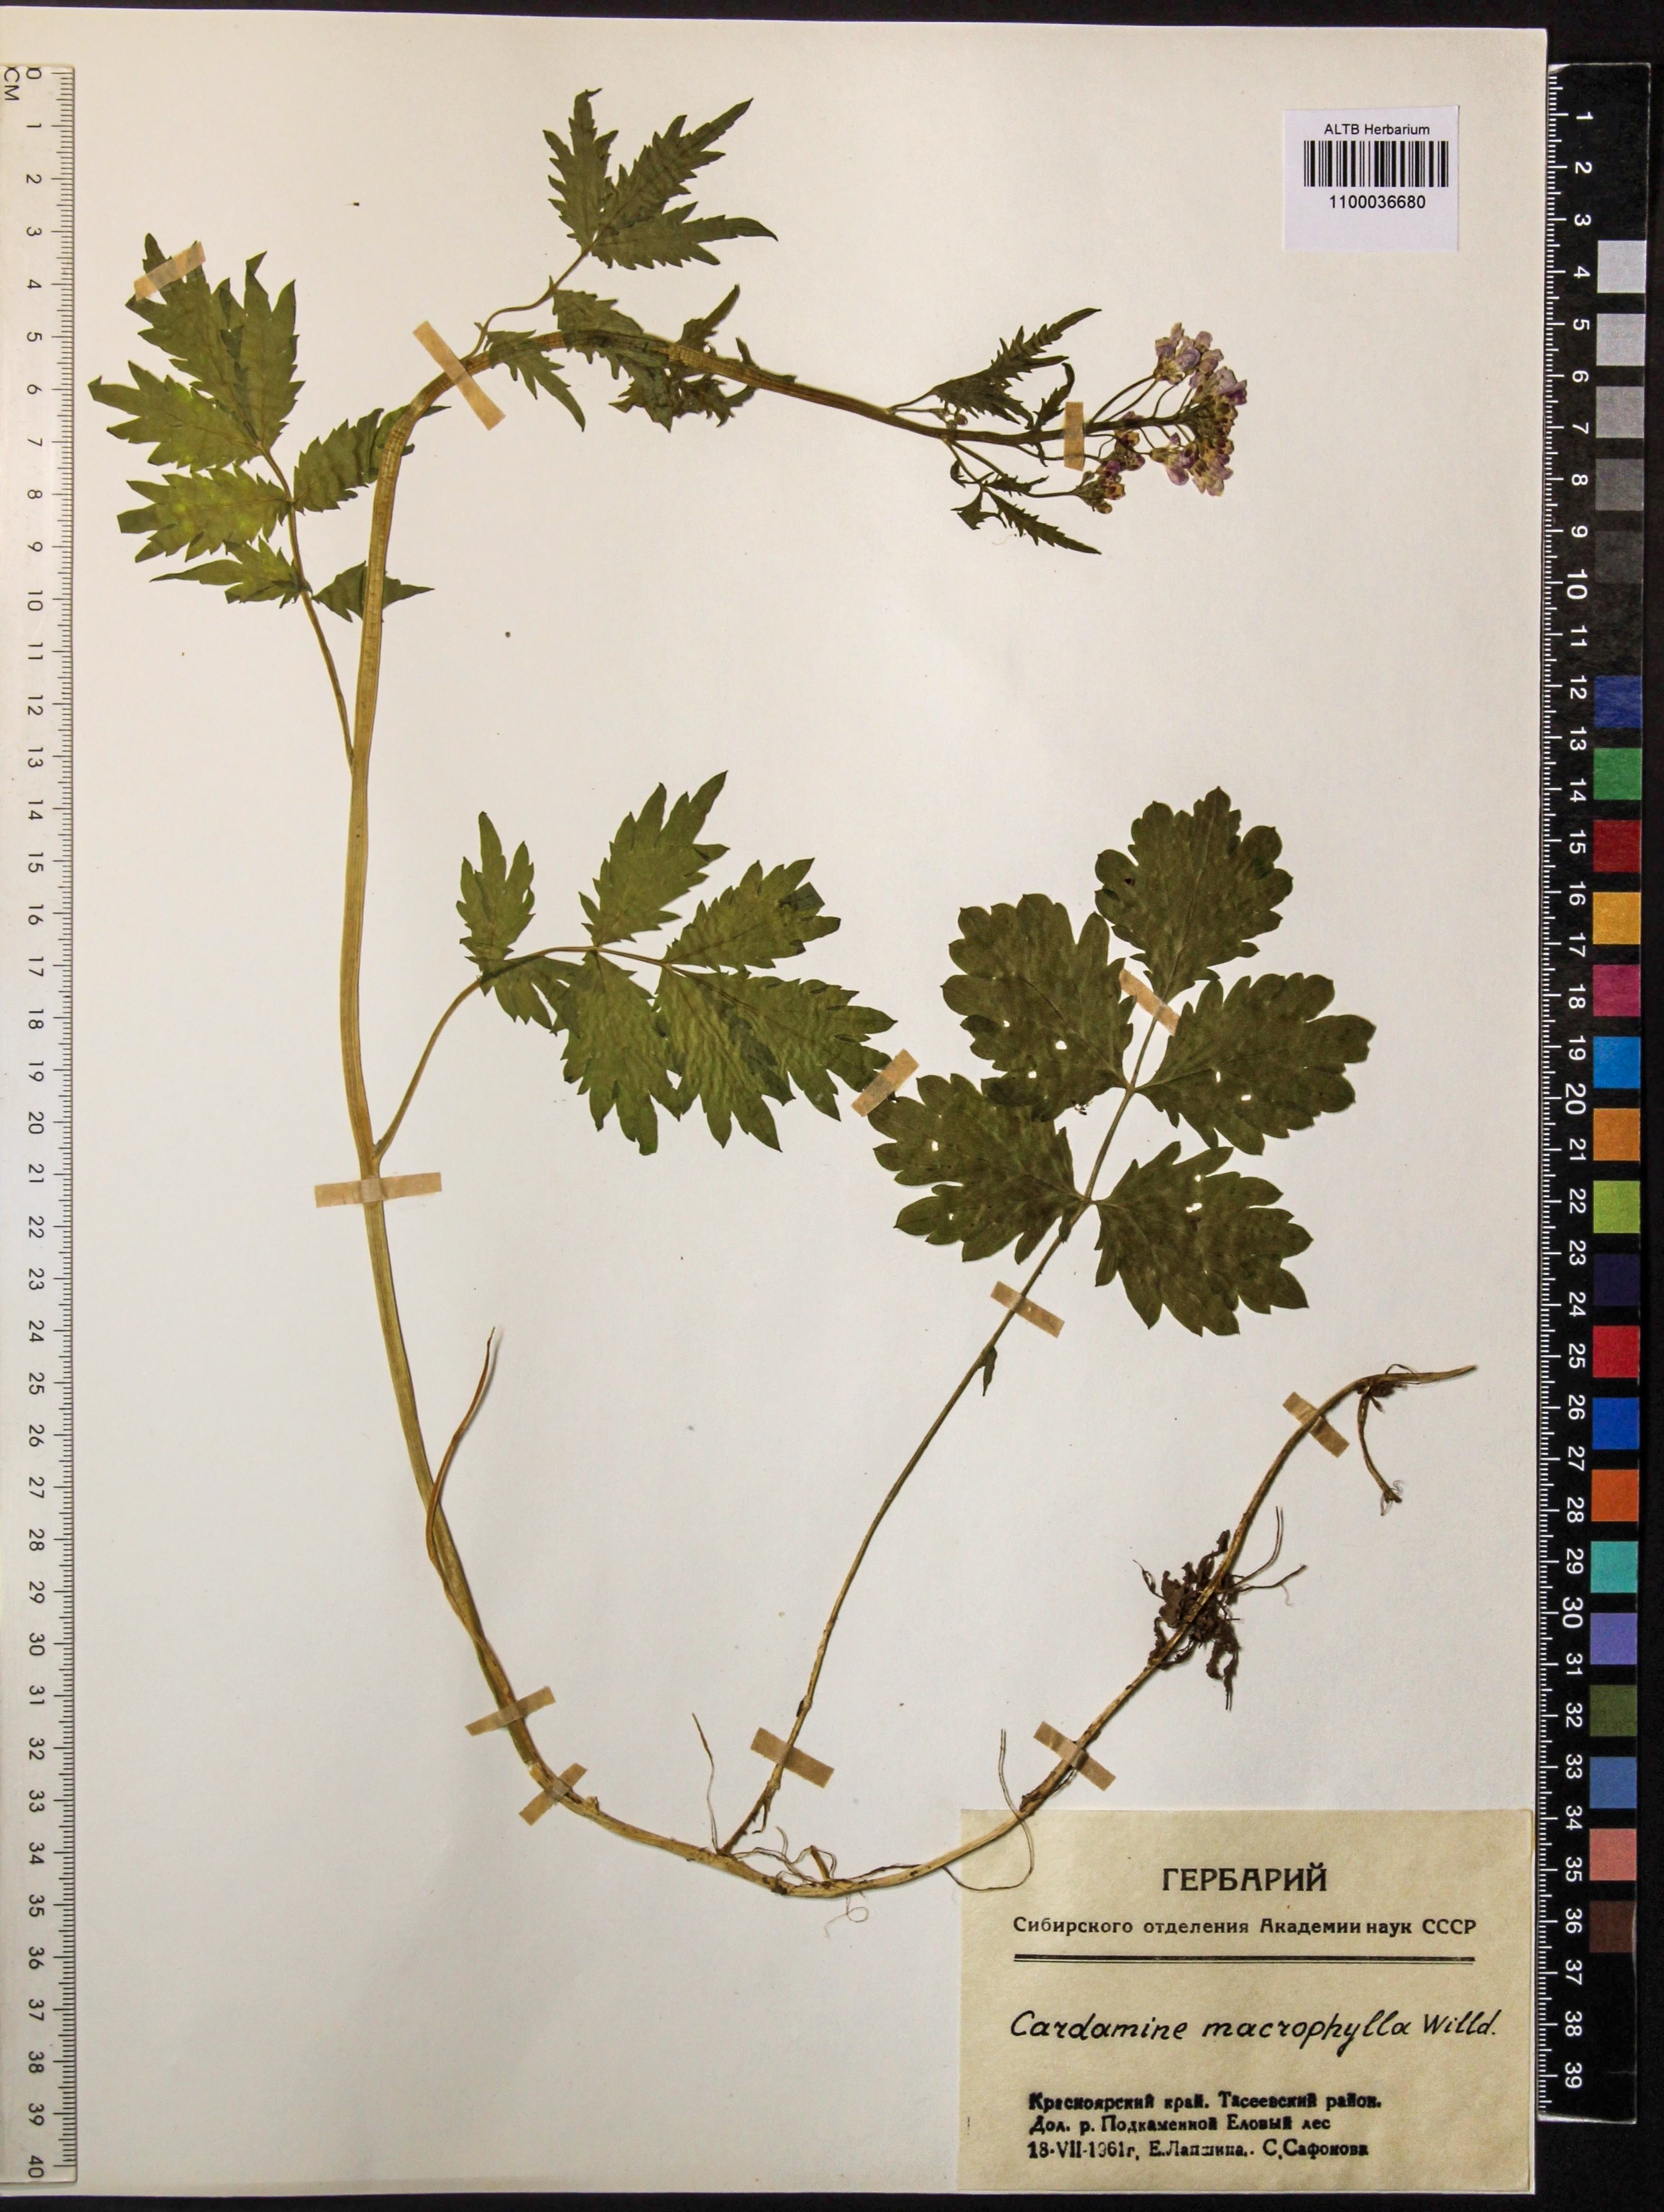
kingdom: Plantae
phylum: Tracheophyta
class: Magnoliopsida
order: Brassicales
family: Brassicaceae
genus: Cardamine
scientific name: Cardamine macrophylla
